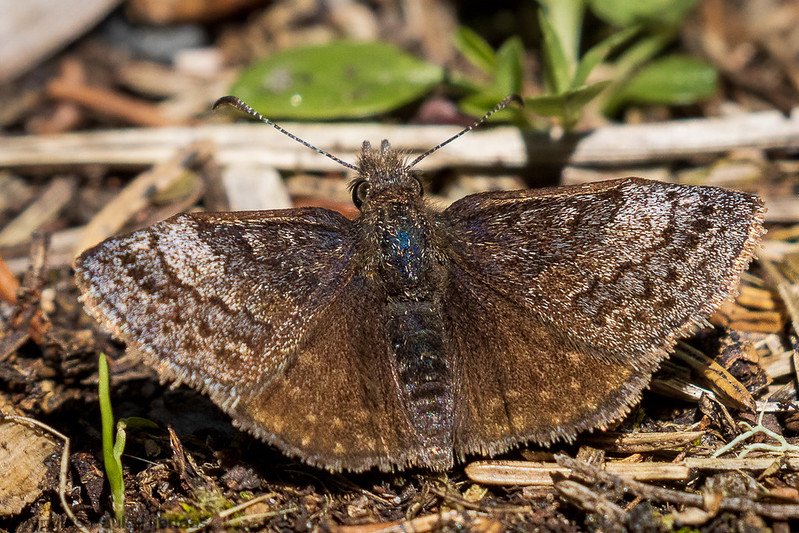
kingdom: Animalia
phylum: Arthropoda
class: Insecta
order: Lepidoptera
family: Hesperiidae
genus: Erynnis
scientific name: Erynnis icelus
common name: Dreamy Duskywing
